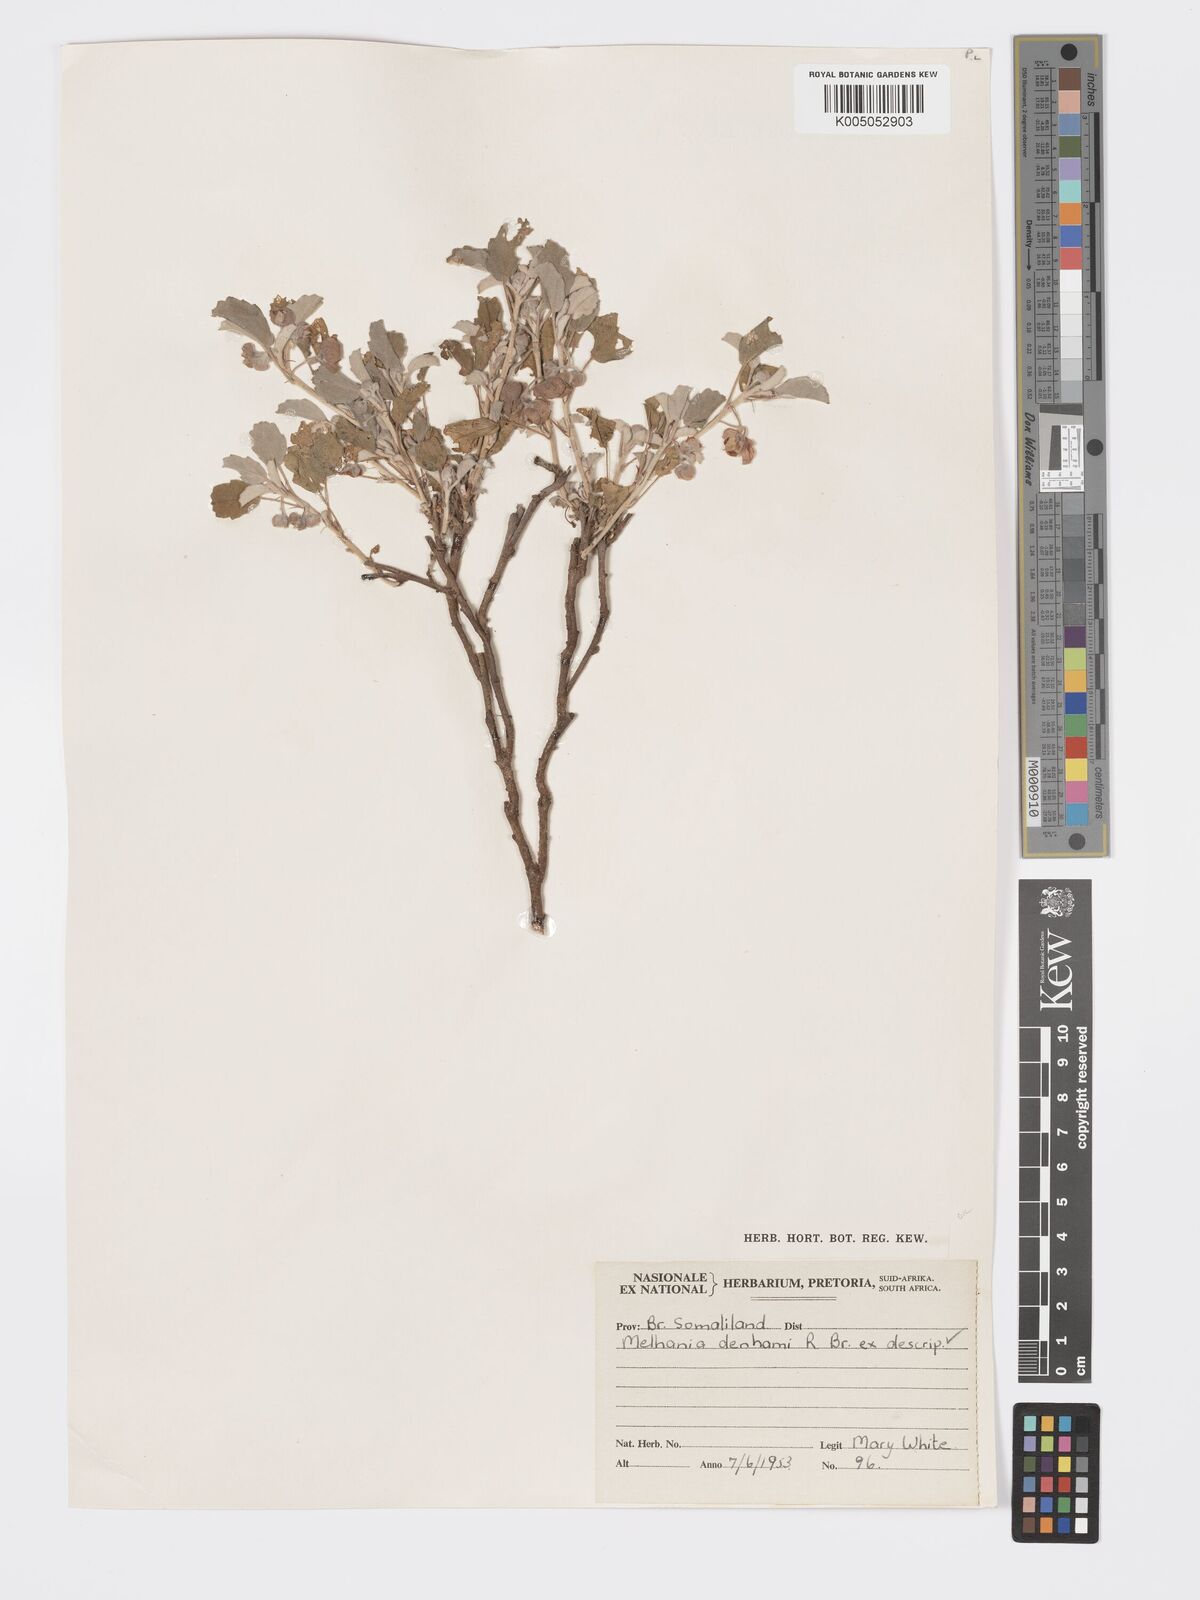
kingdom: Plantae
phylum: Tracheophyta
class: Magnoliopsida
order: Malvales
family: Malvaceae
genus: Melhania
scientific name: Melhania denhamii
